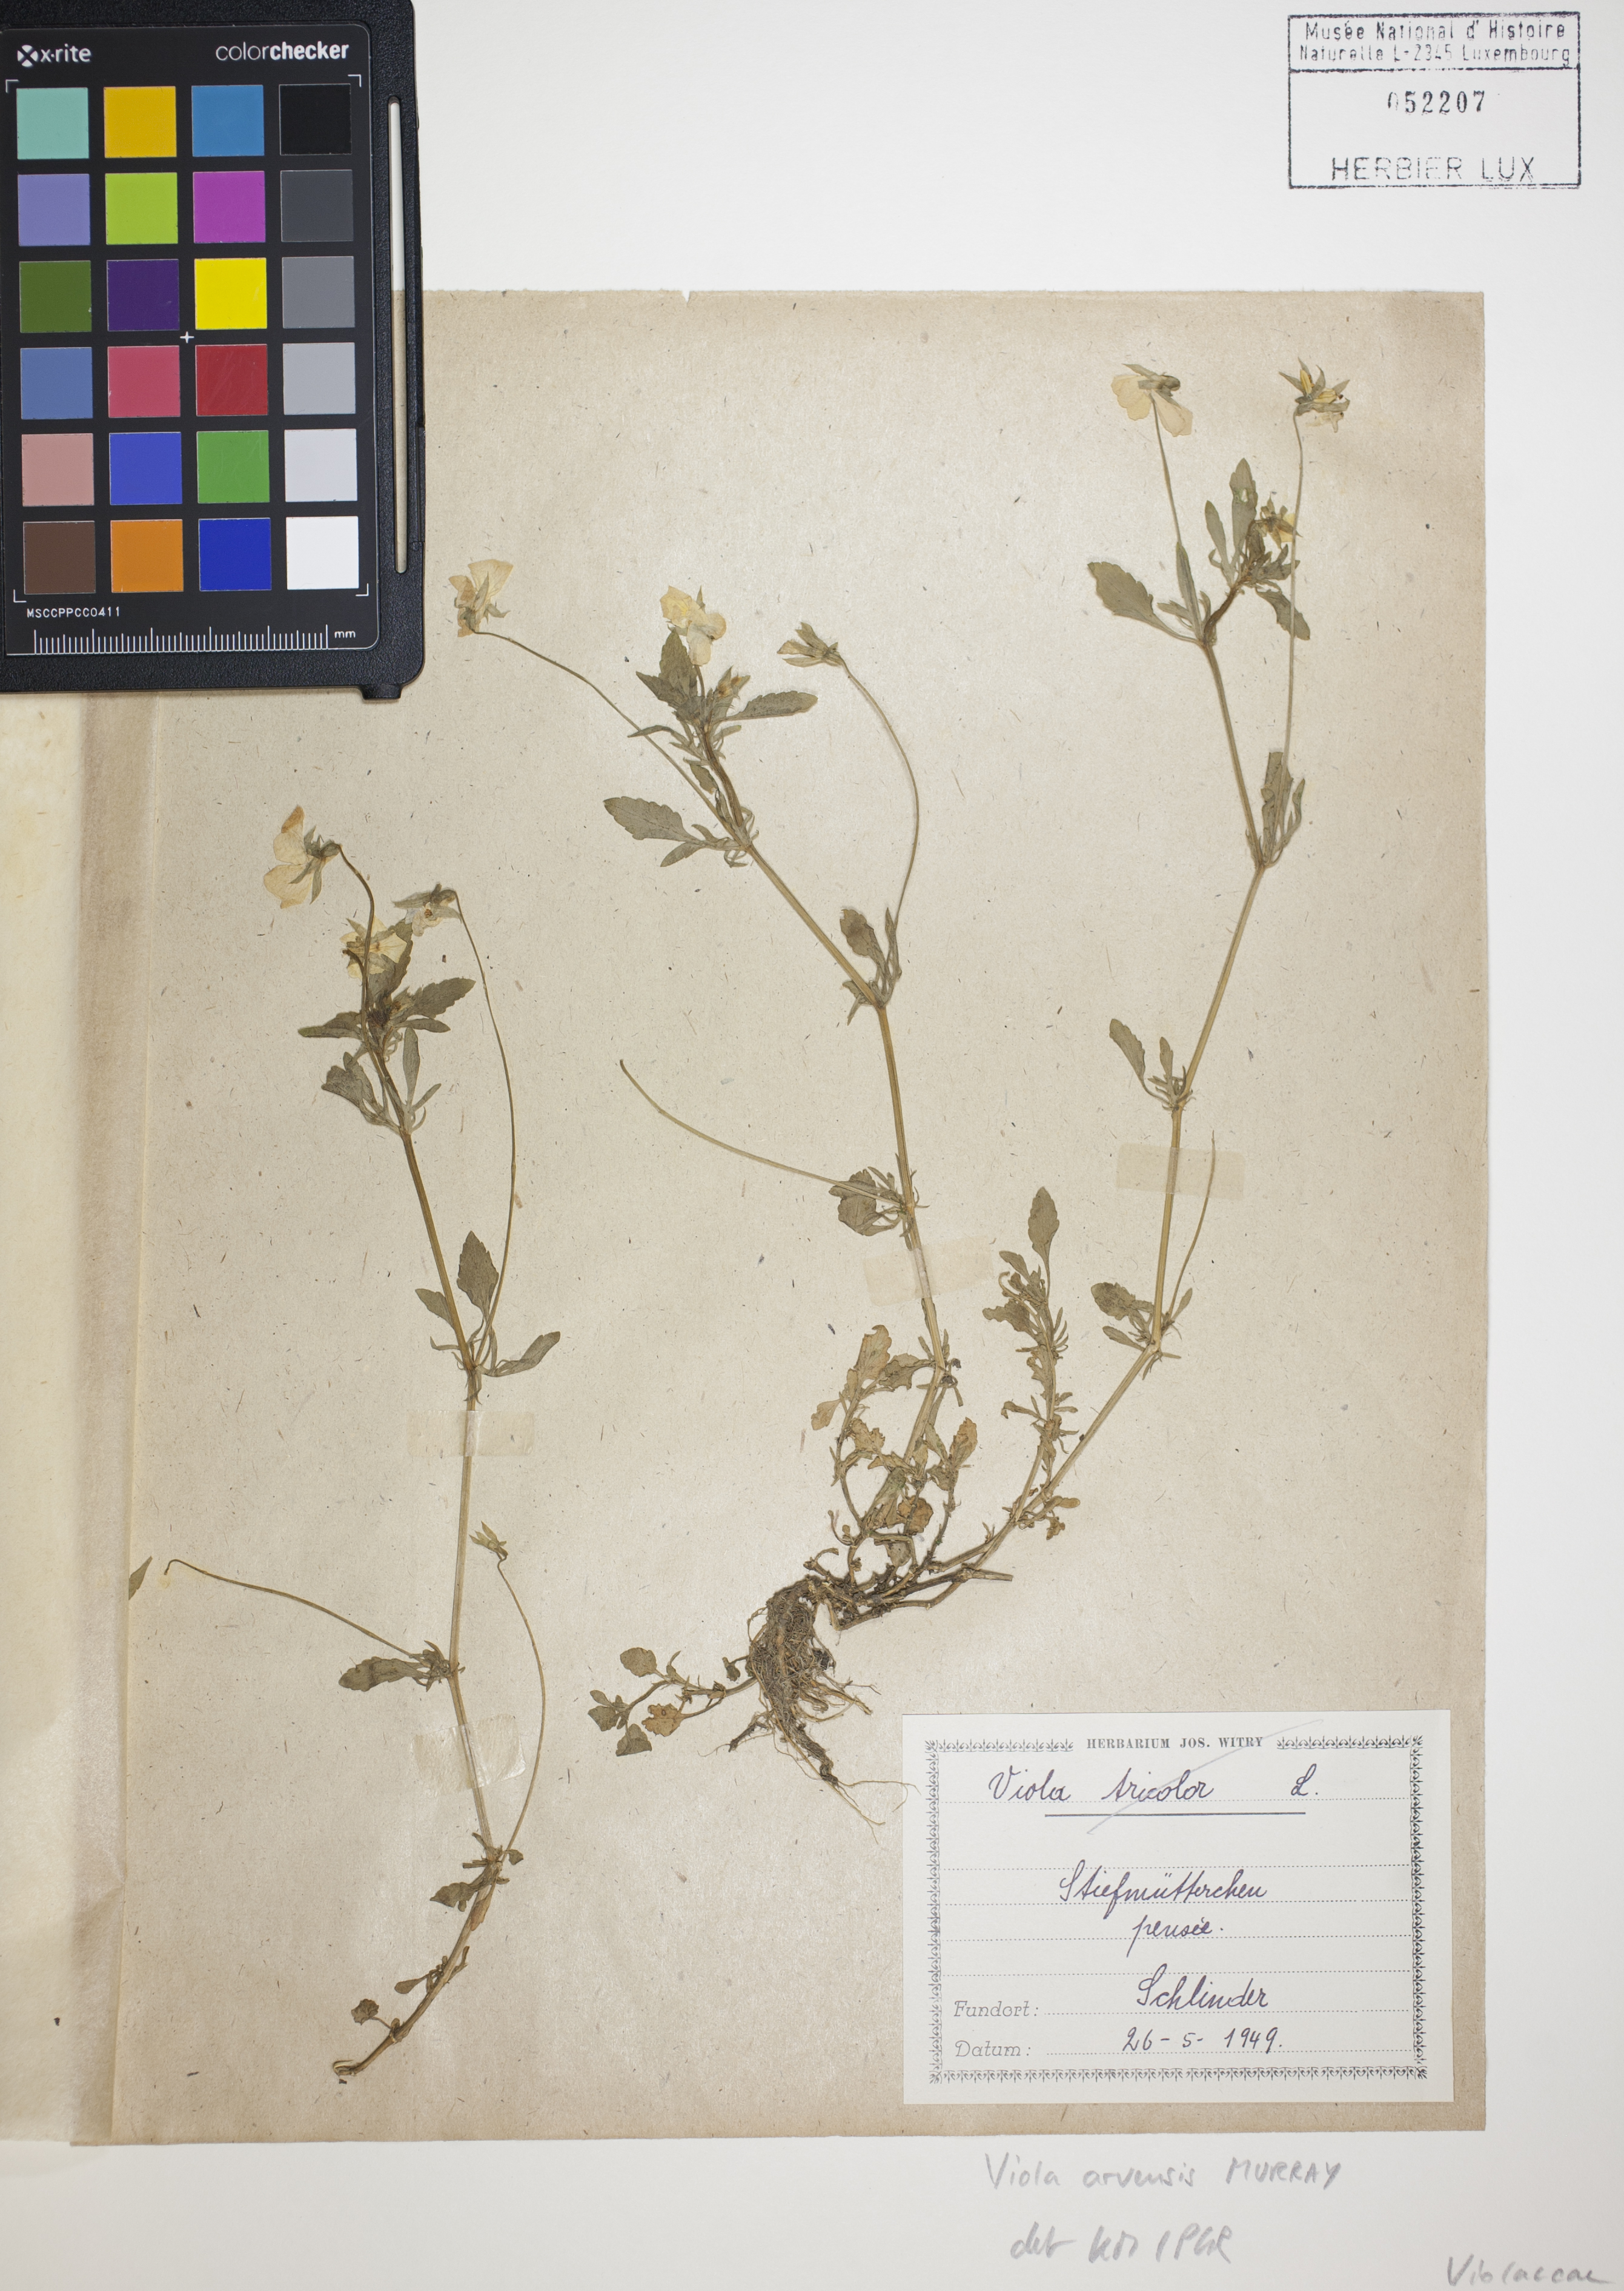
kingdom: Plantae
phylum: Tracheophyta
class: Magnoliopsida
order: Malpighiales
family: Violaceae
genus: Viola
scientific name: Viola arvensis
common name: Field pansy
